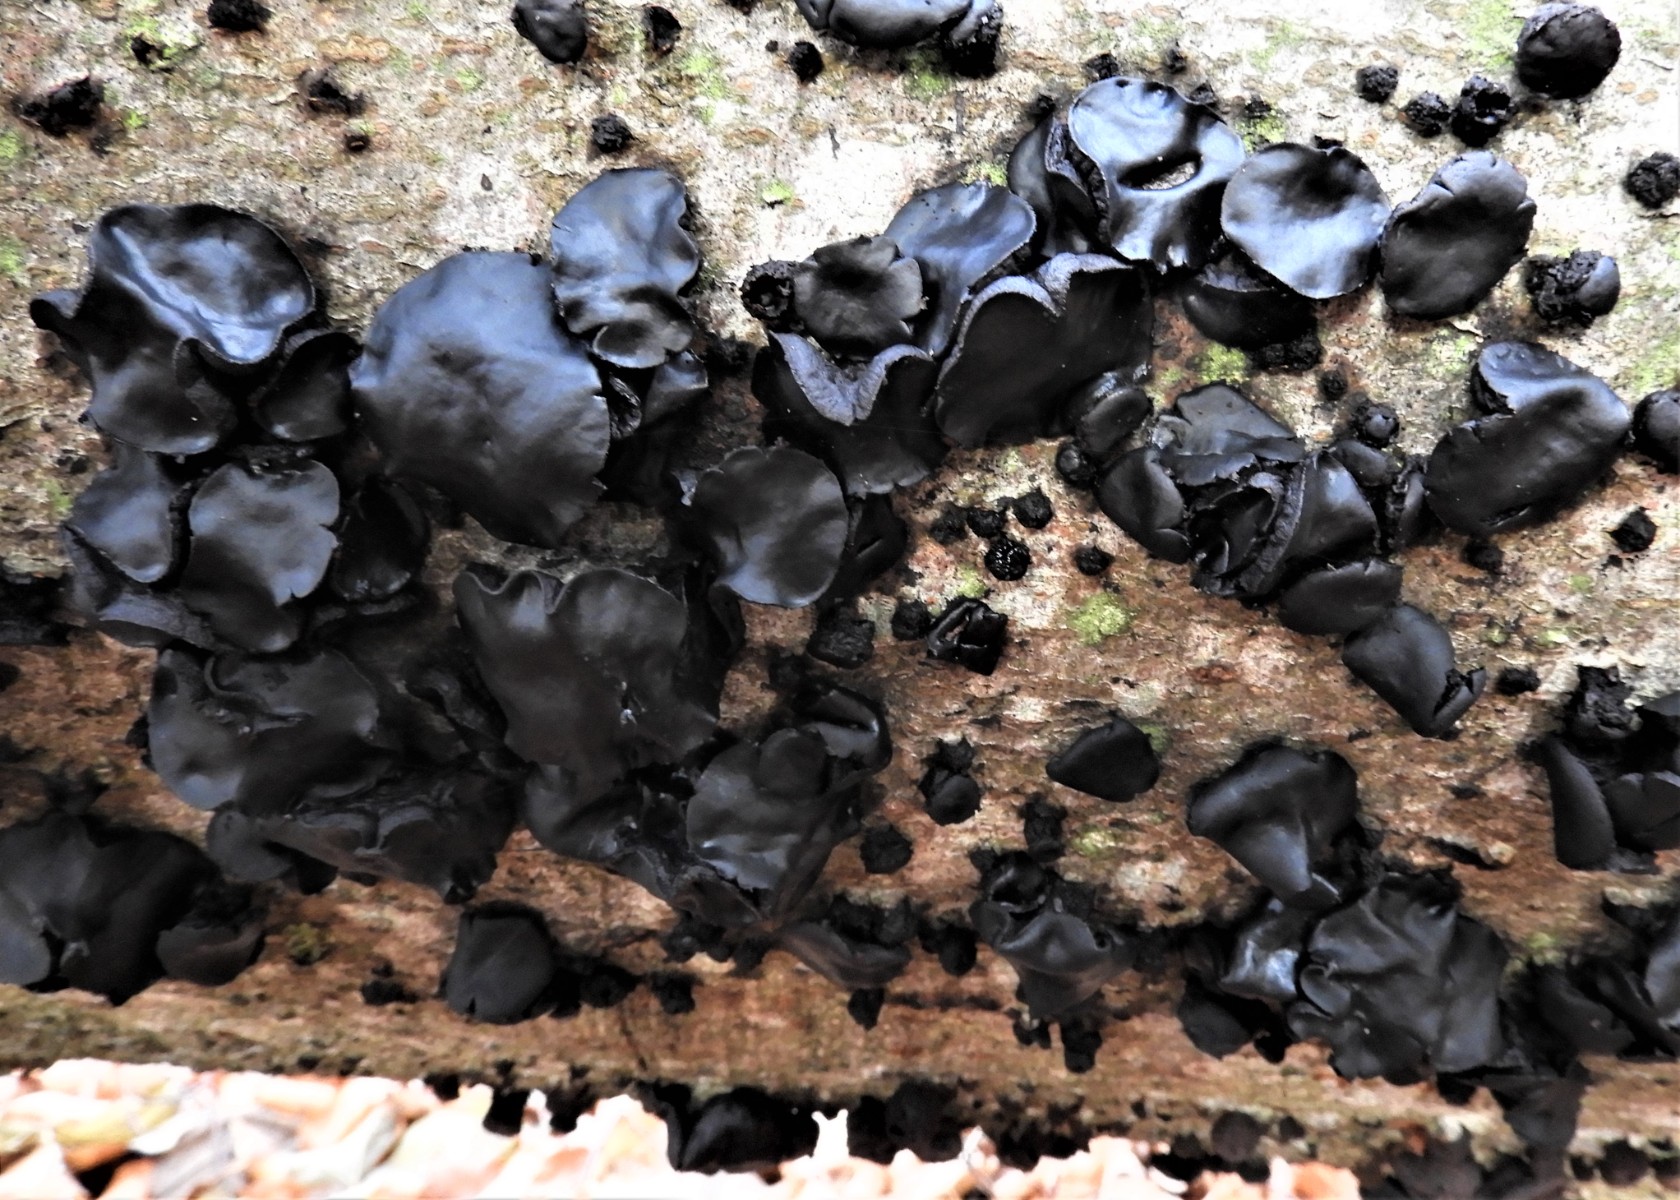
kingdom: Fungi
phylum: Ascomycota
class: Leotiomycetes
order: Phacidiales
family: Phacidiaceae
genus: Bulgaria
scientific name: Bulgaria inquinans
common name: afsmittende topsvamp
